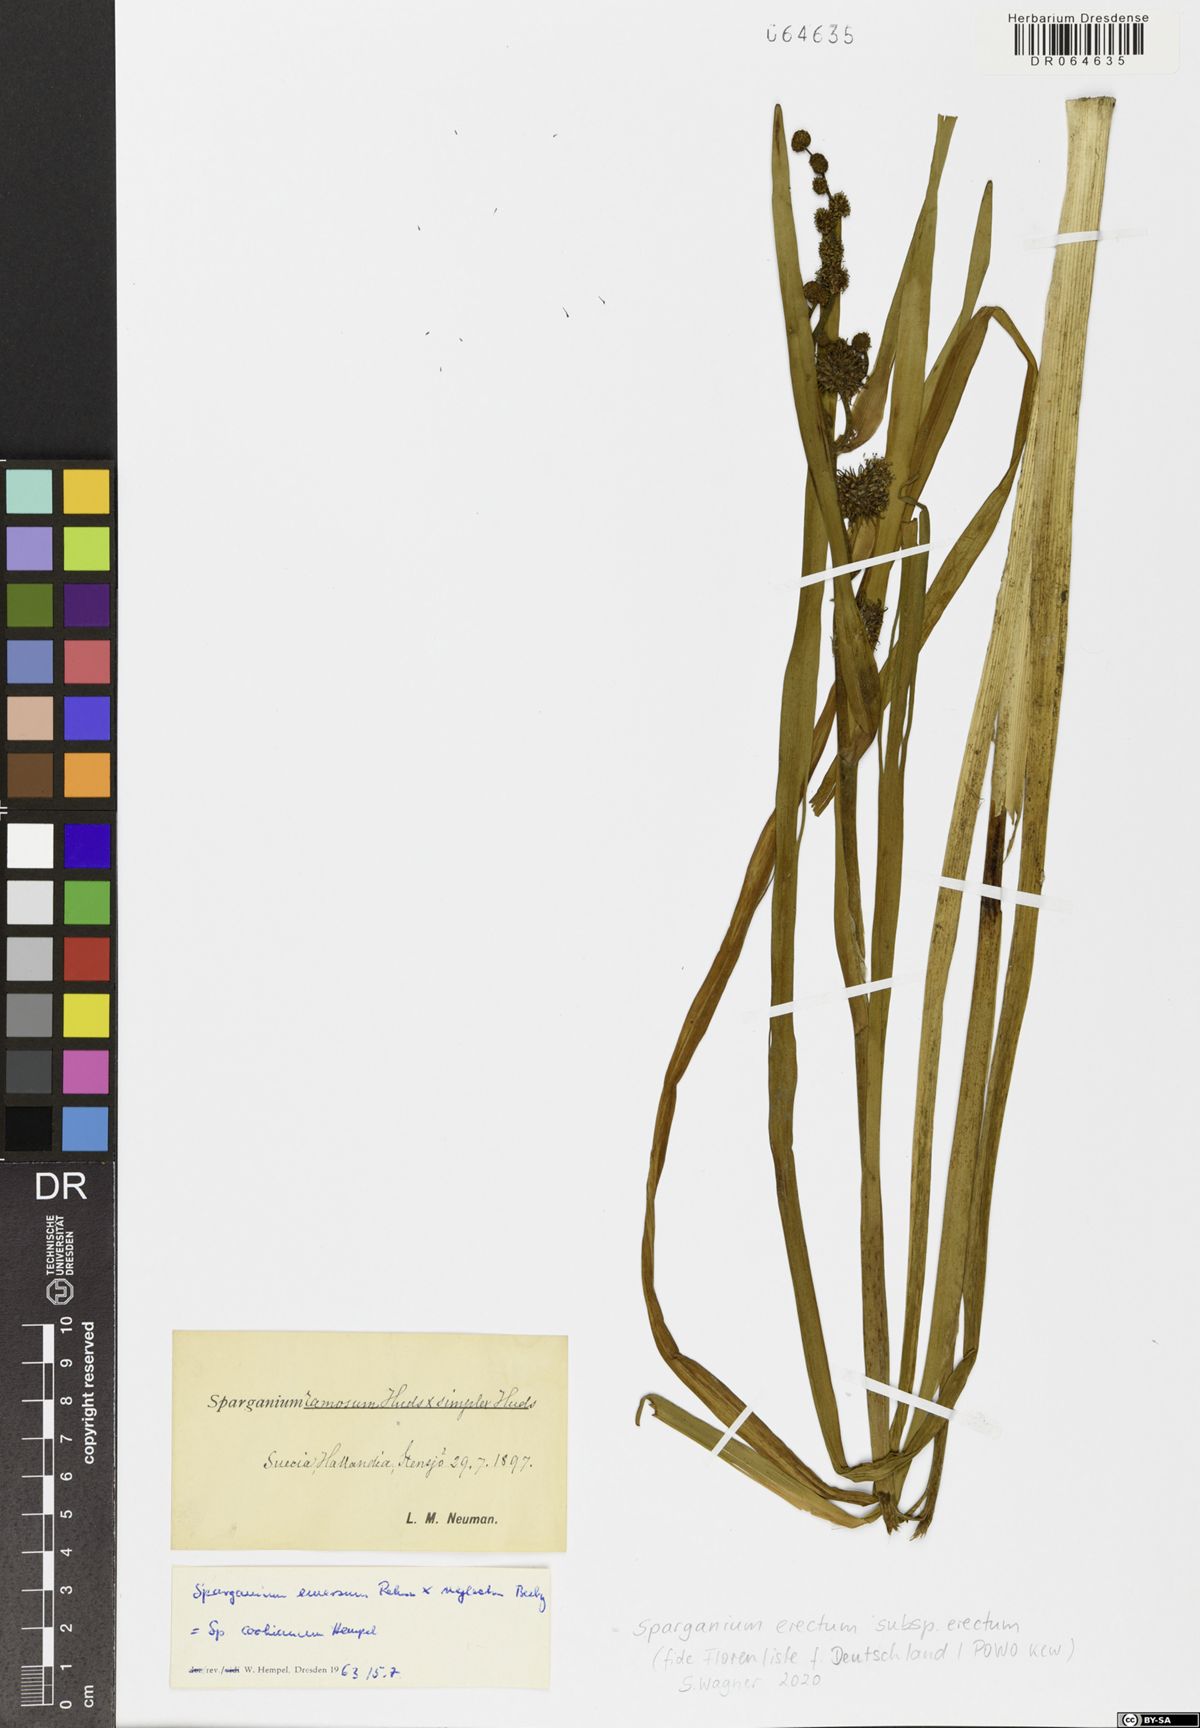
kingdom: Plantae
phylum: Tracheophyta
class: Liliopsida
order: Poales
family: Typhaceae
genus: Sparganium
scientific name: Sparganium erectum
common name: Branched bur-reed
